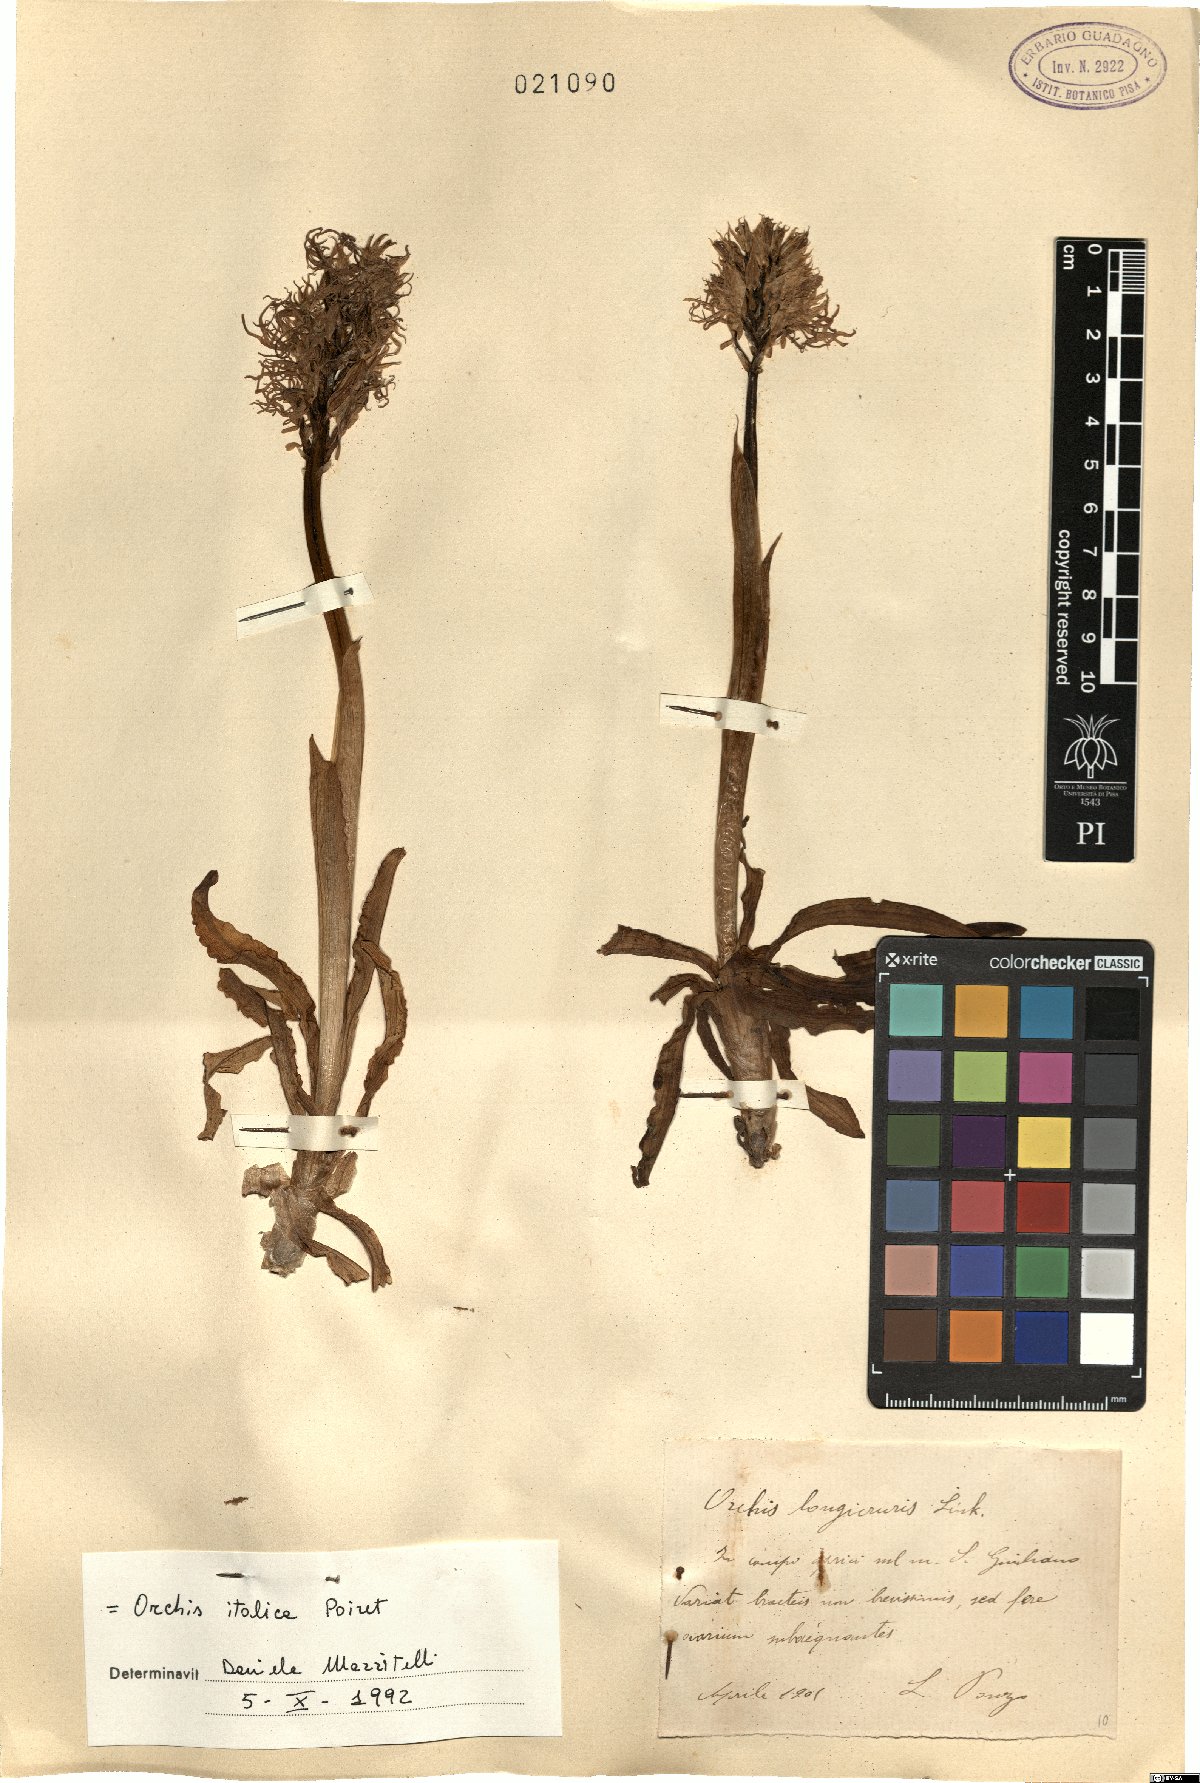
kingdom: Plantae
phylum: Tracheophyta
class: Liliopsida
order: Asparagales
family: Orchidaceae
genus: Orchis
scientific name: Orchis italica
